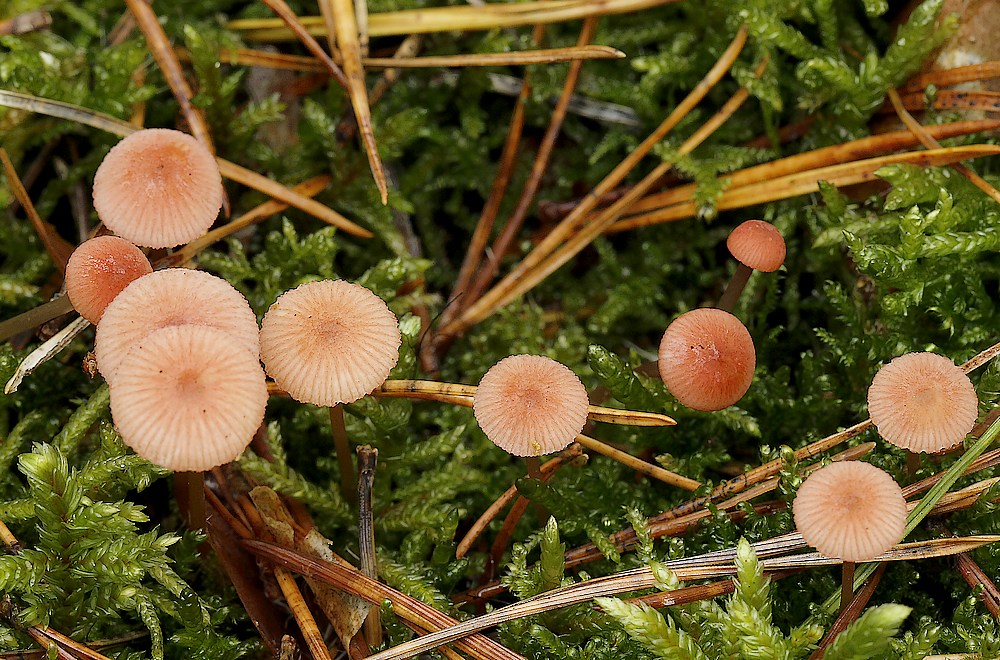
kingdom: Fungi
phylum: Basidiomycota
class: Agaricomycetes
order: Agaricales
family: Mycenaceae
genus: Mycena
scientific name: Mycena rosella
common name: rosenrød huesvamp
